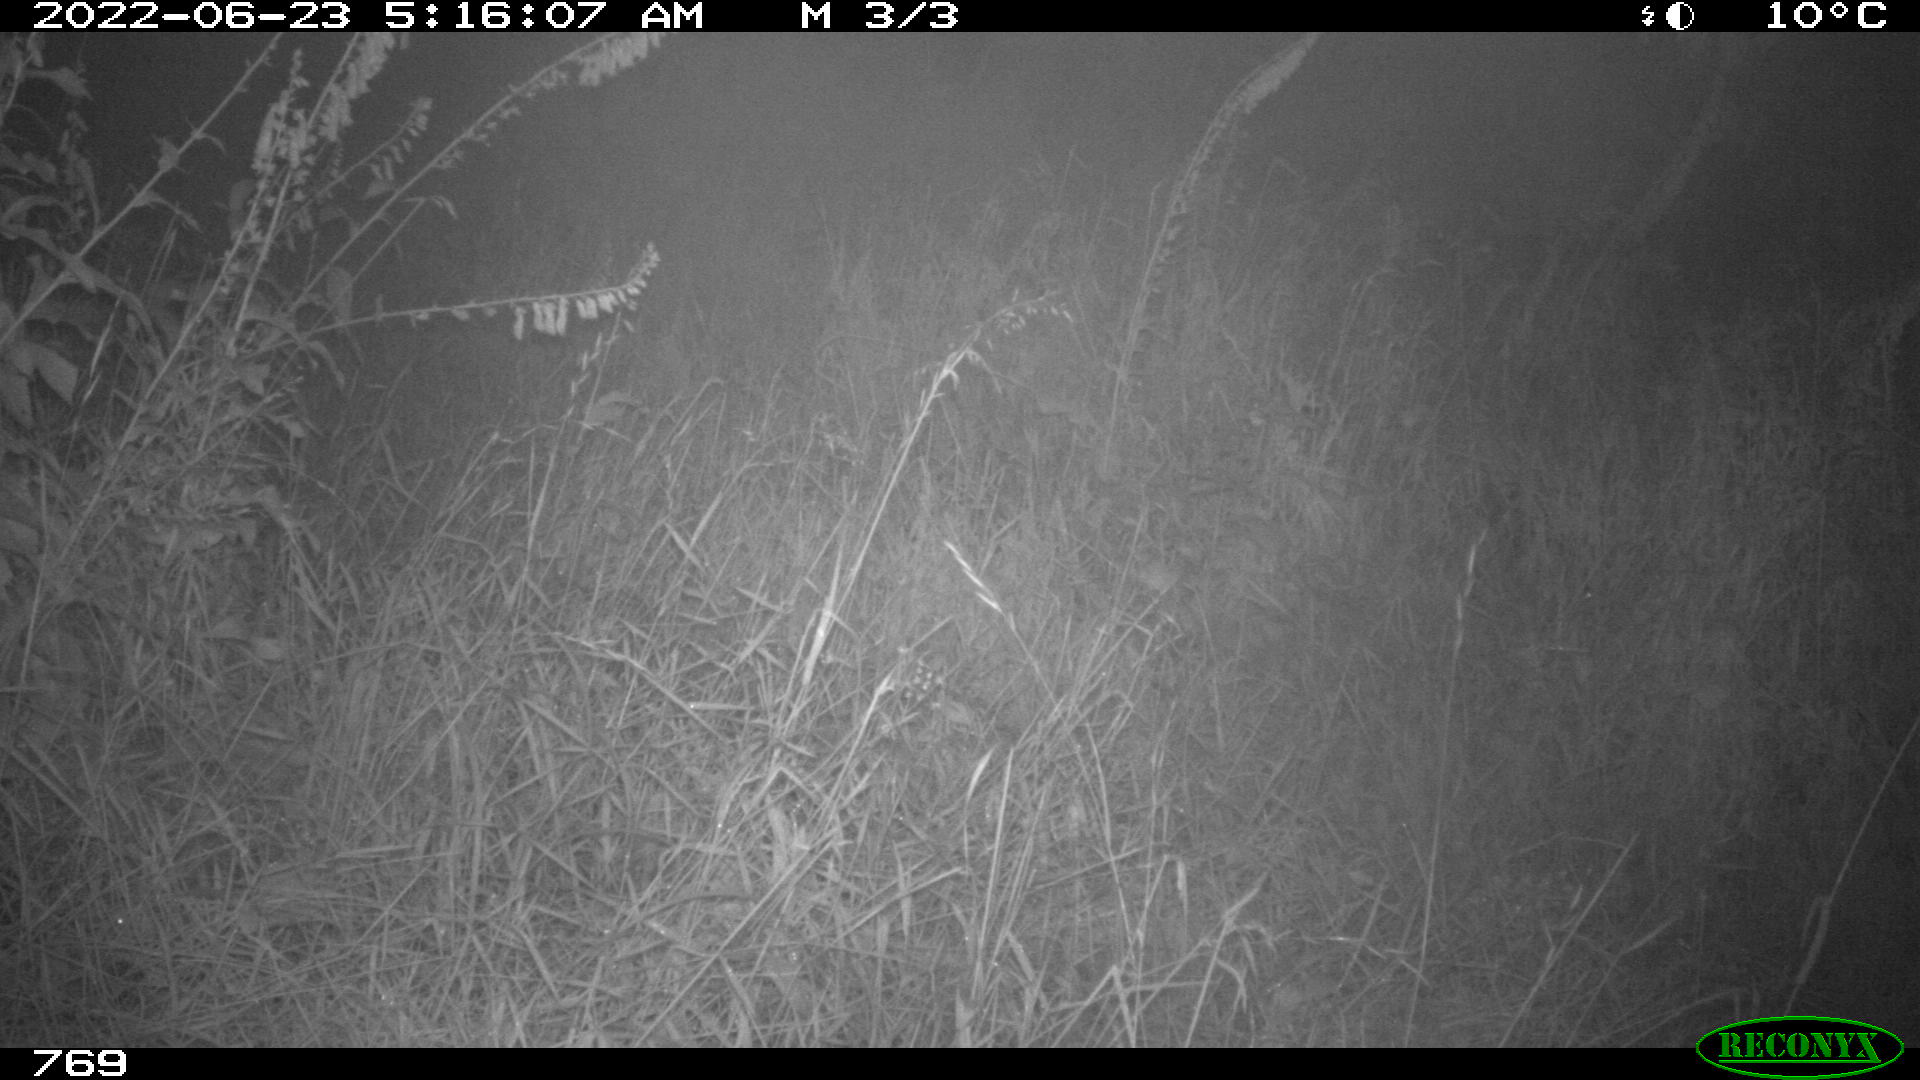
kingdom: Animalia
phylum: Chordata
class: Mammalia
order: Artiodactyla
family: Suidae
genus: Sus
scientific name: Sus scrofa
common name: Wild boar
